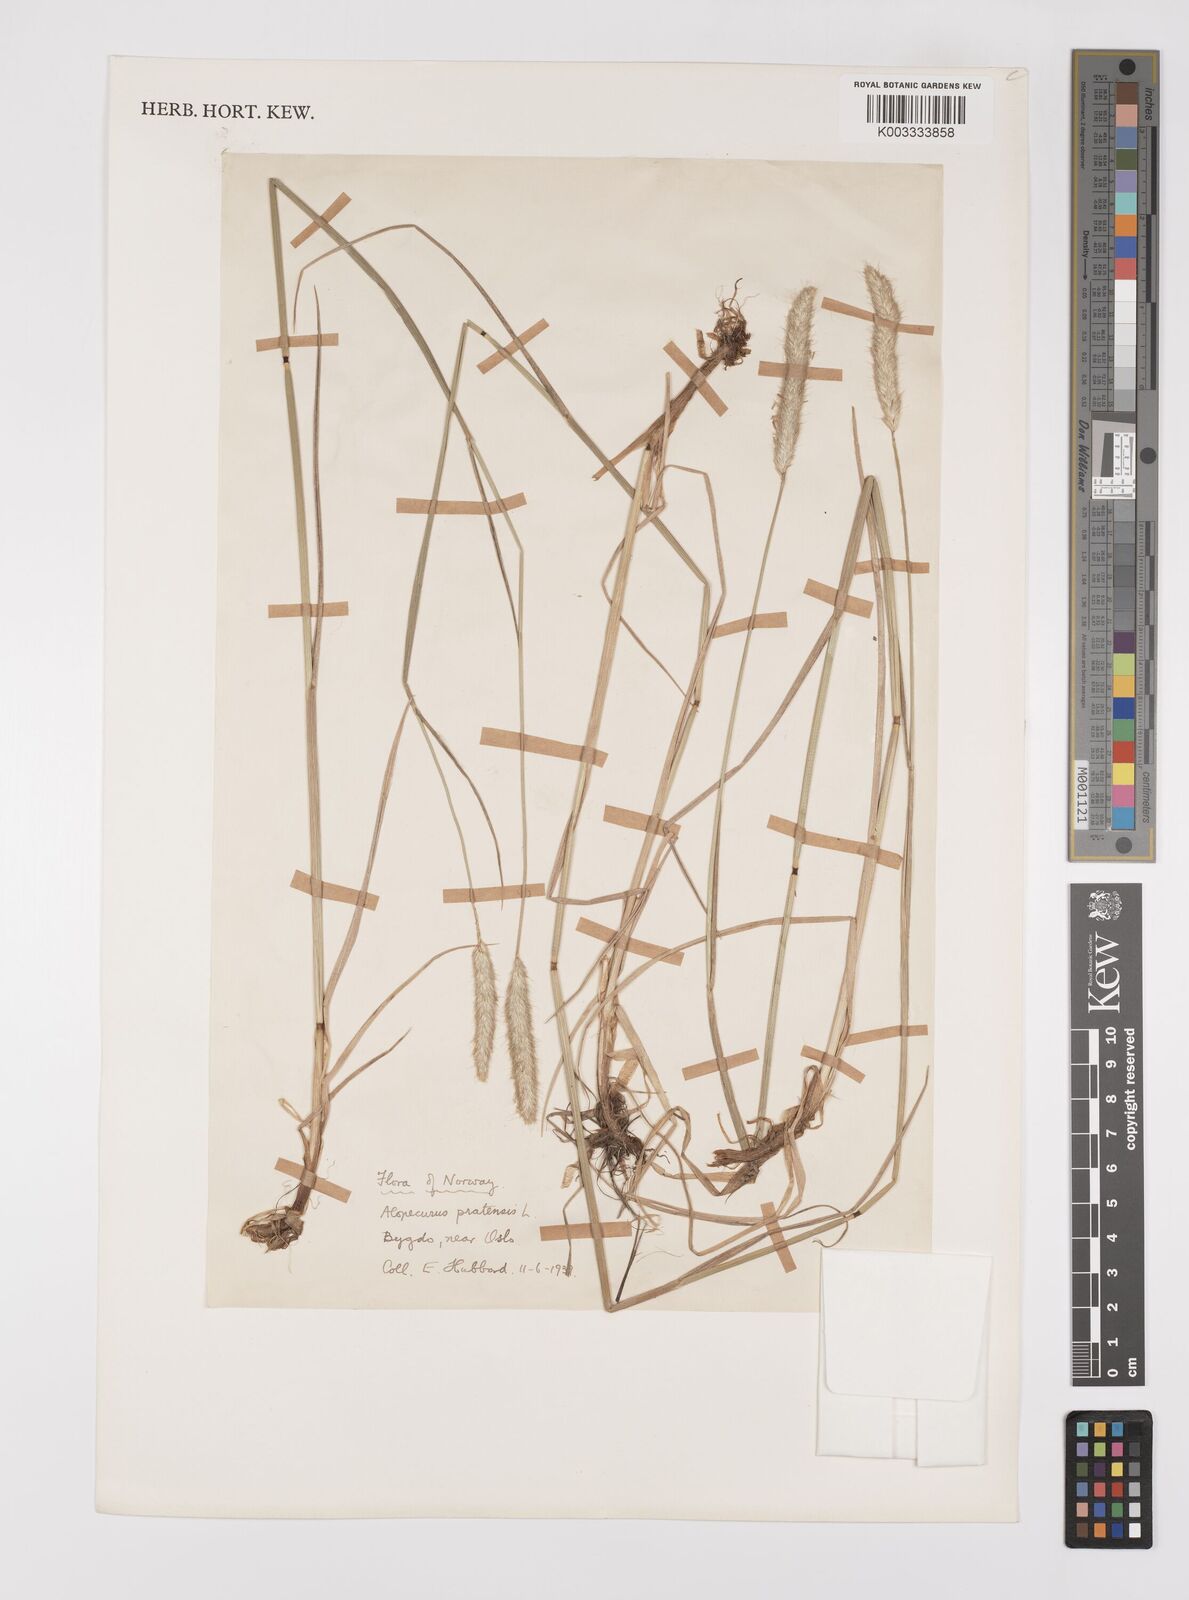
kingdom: Plantae
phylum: Tracheophyta
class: Liliopsida
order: Poales
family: Poaceae
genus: Alopecurus
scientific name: Alopecurus pratensis
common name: Meadow foxtail
